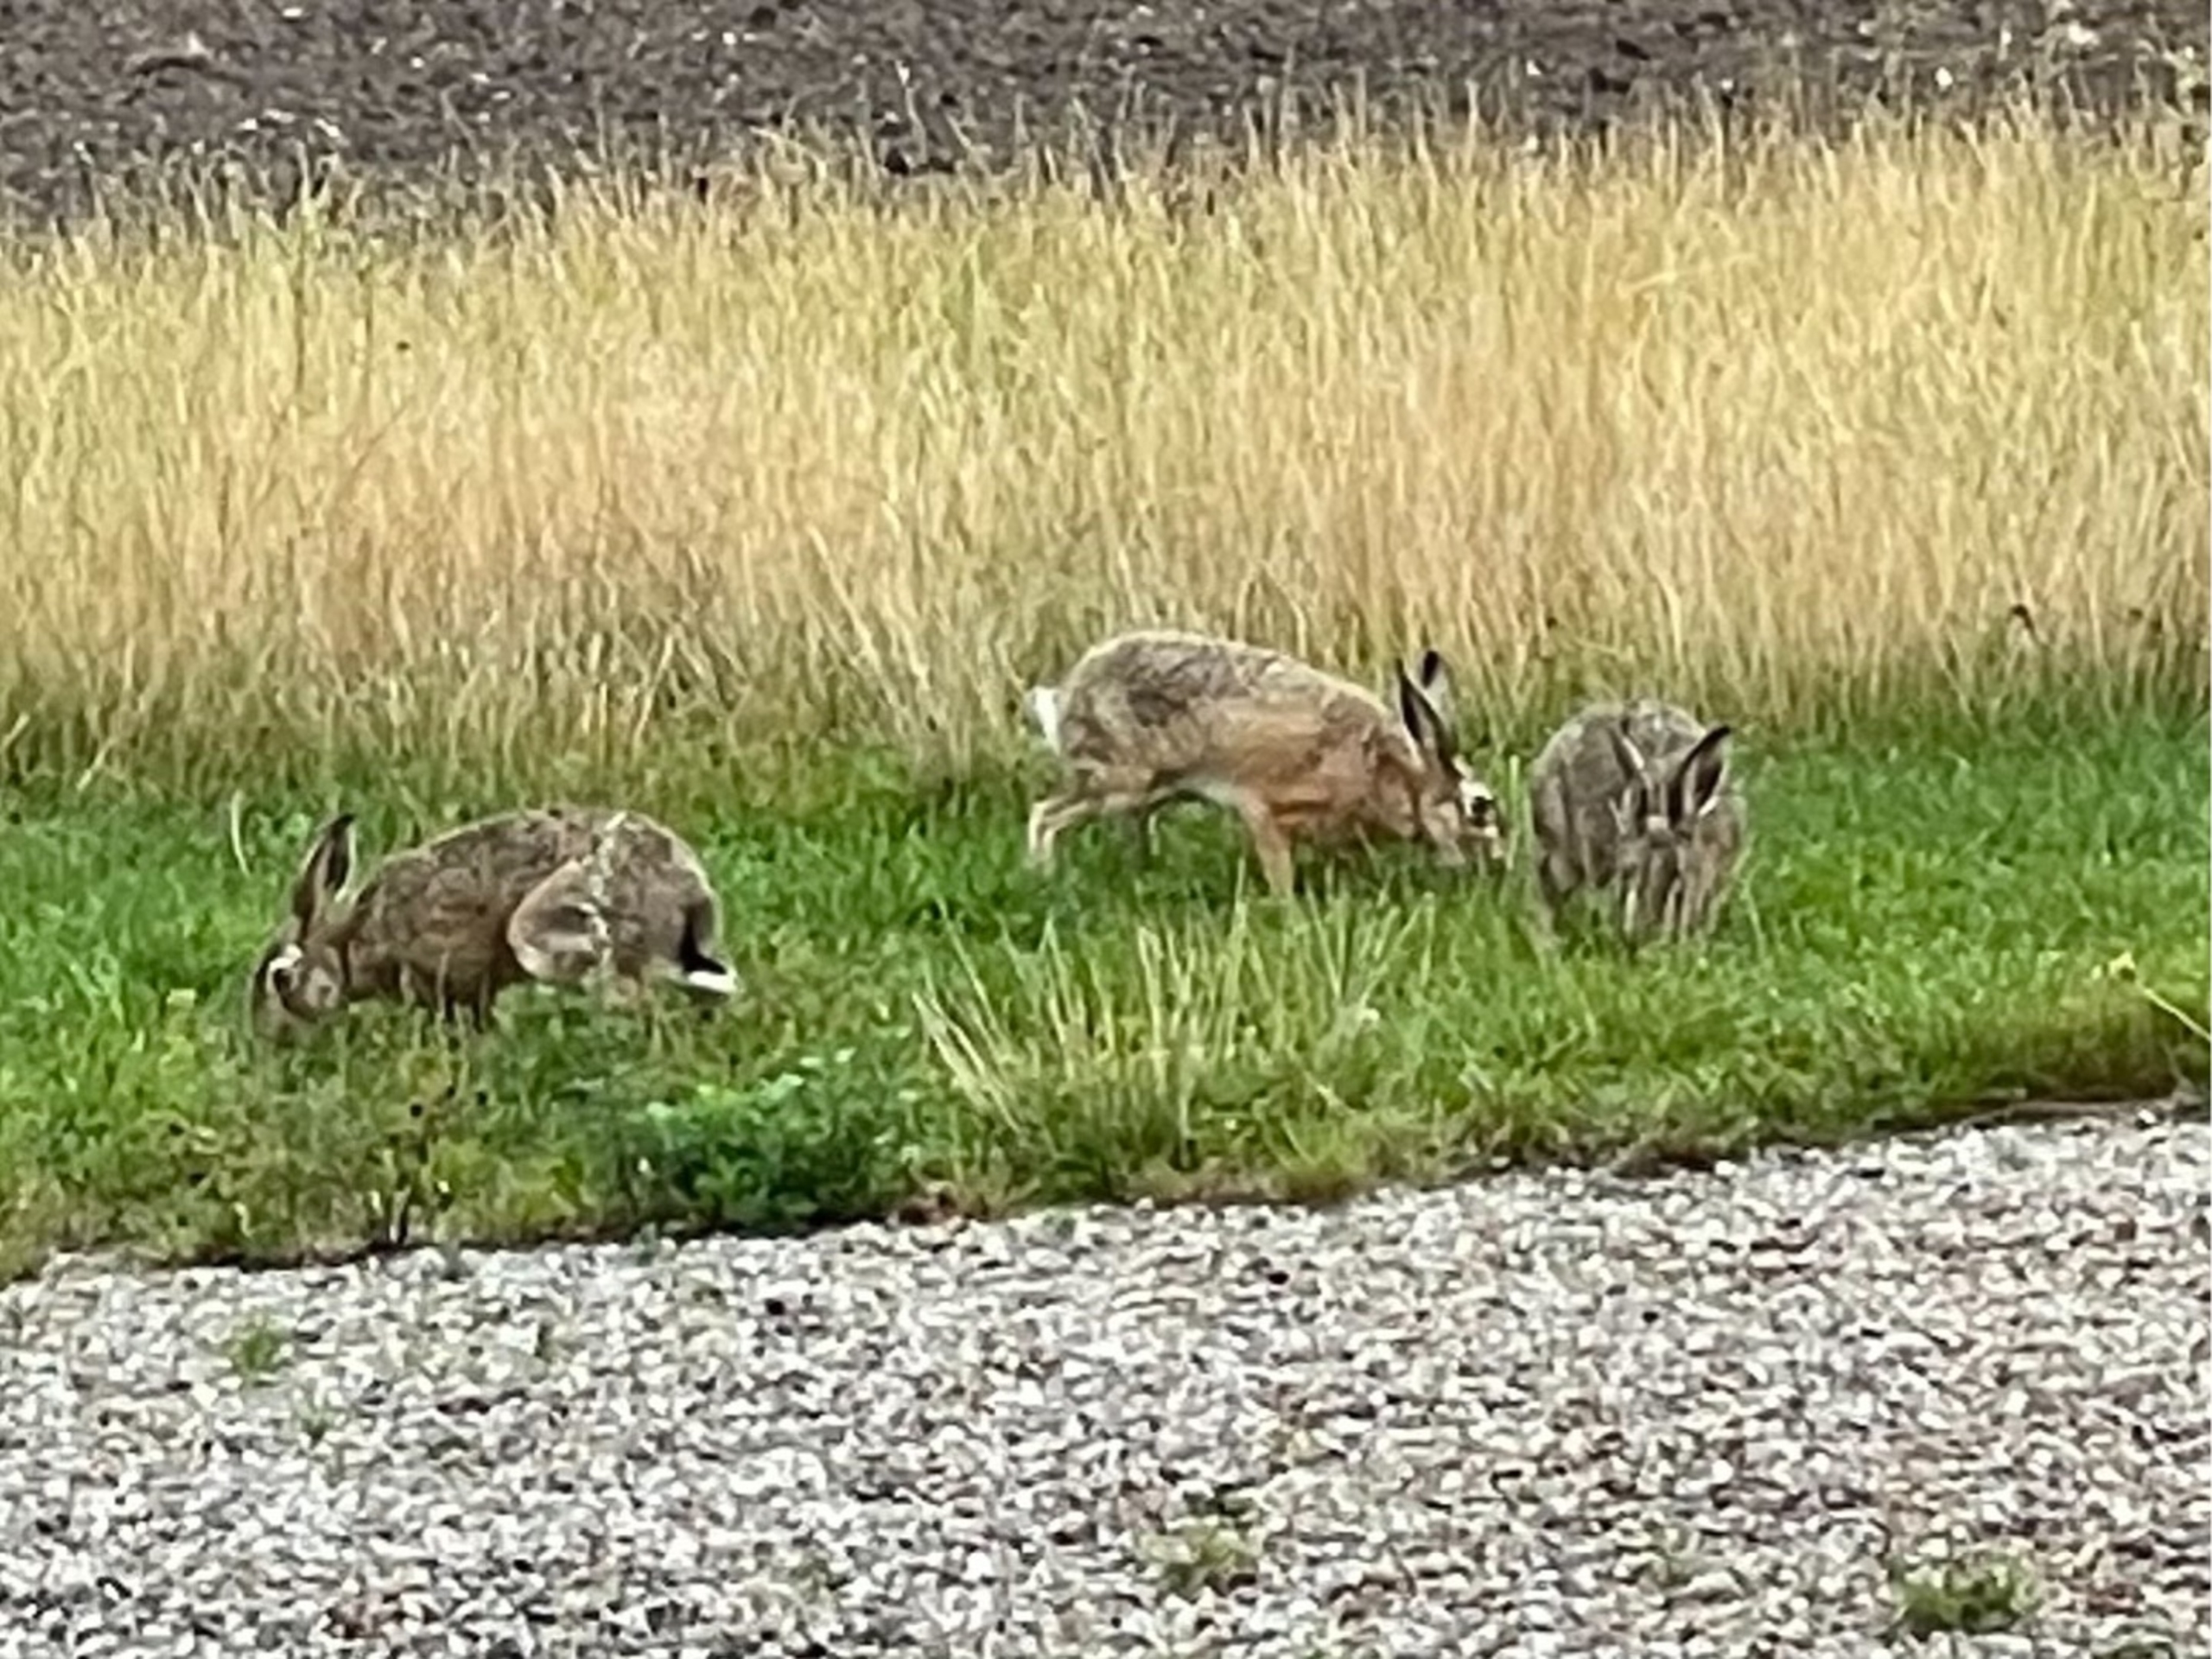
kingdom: Animalia
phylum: Chordata
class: Mammalia
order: Lagomorpha
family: Leporidae
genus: Lepus
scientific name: Lepus europaeus
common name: Hare
